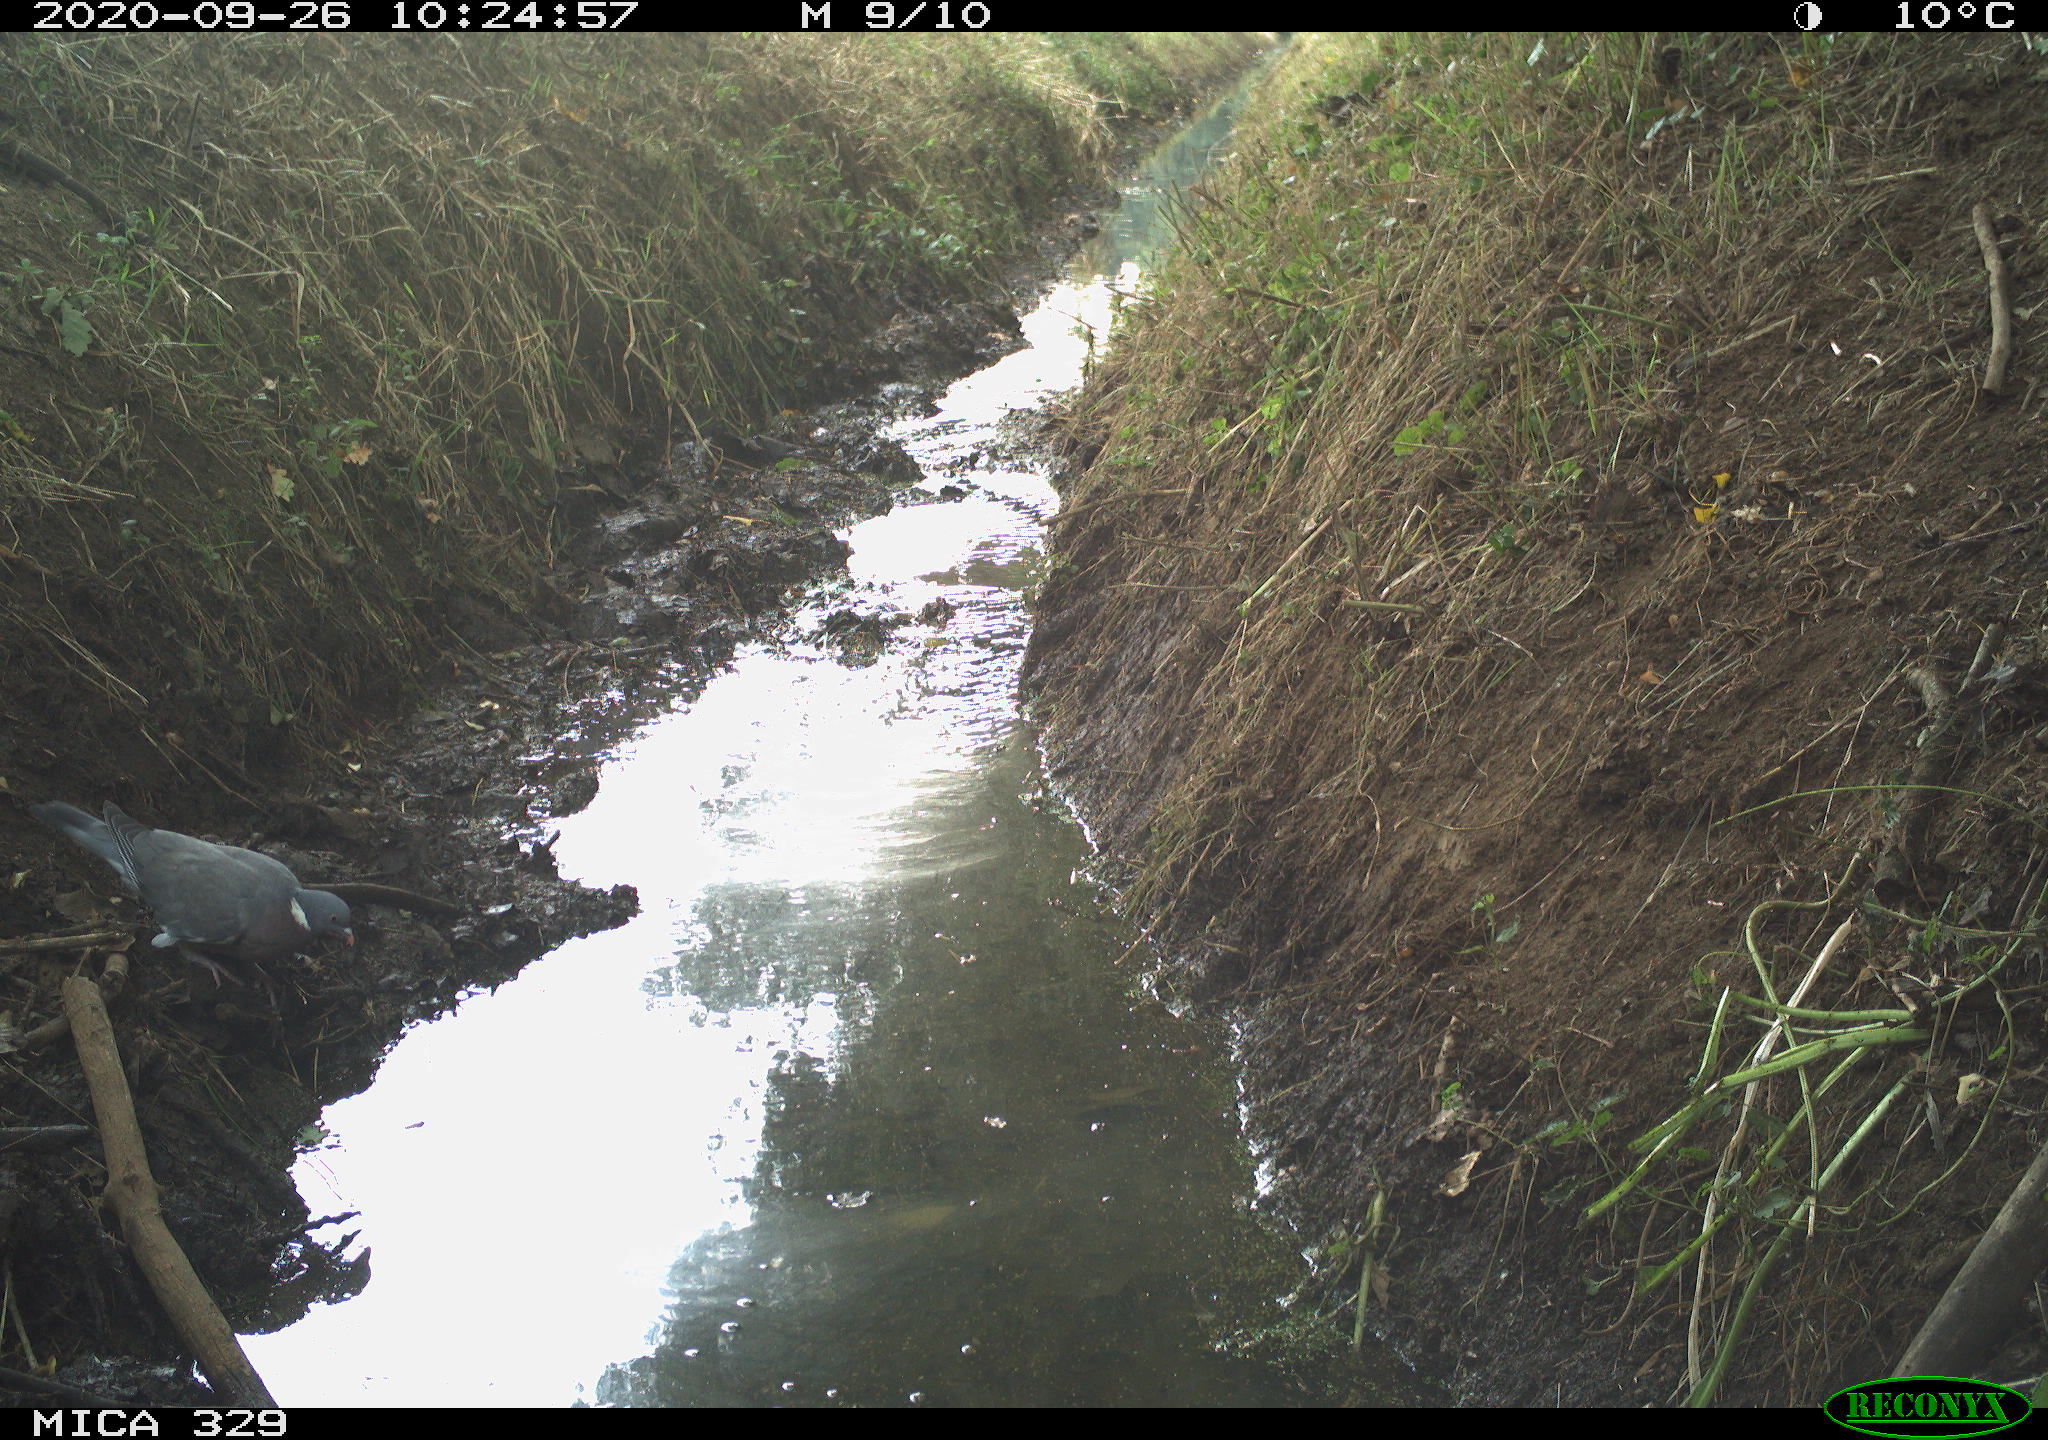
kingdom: Animalia
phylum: Chordata
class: Aves
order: Columbiformes
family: Columbidae
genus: Columba
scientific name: Columba palumbus
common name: Common wood pigeon
